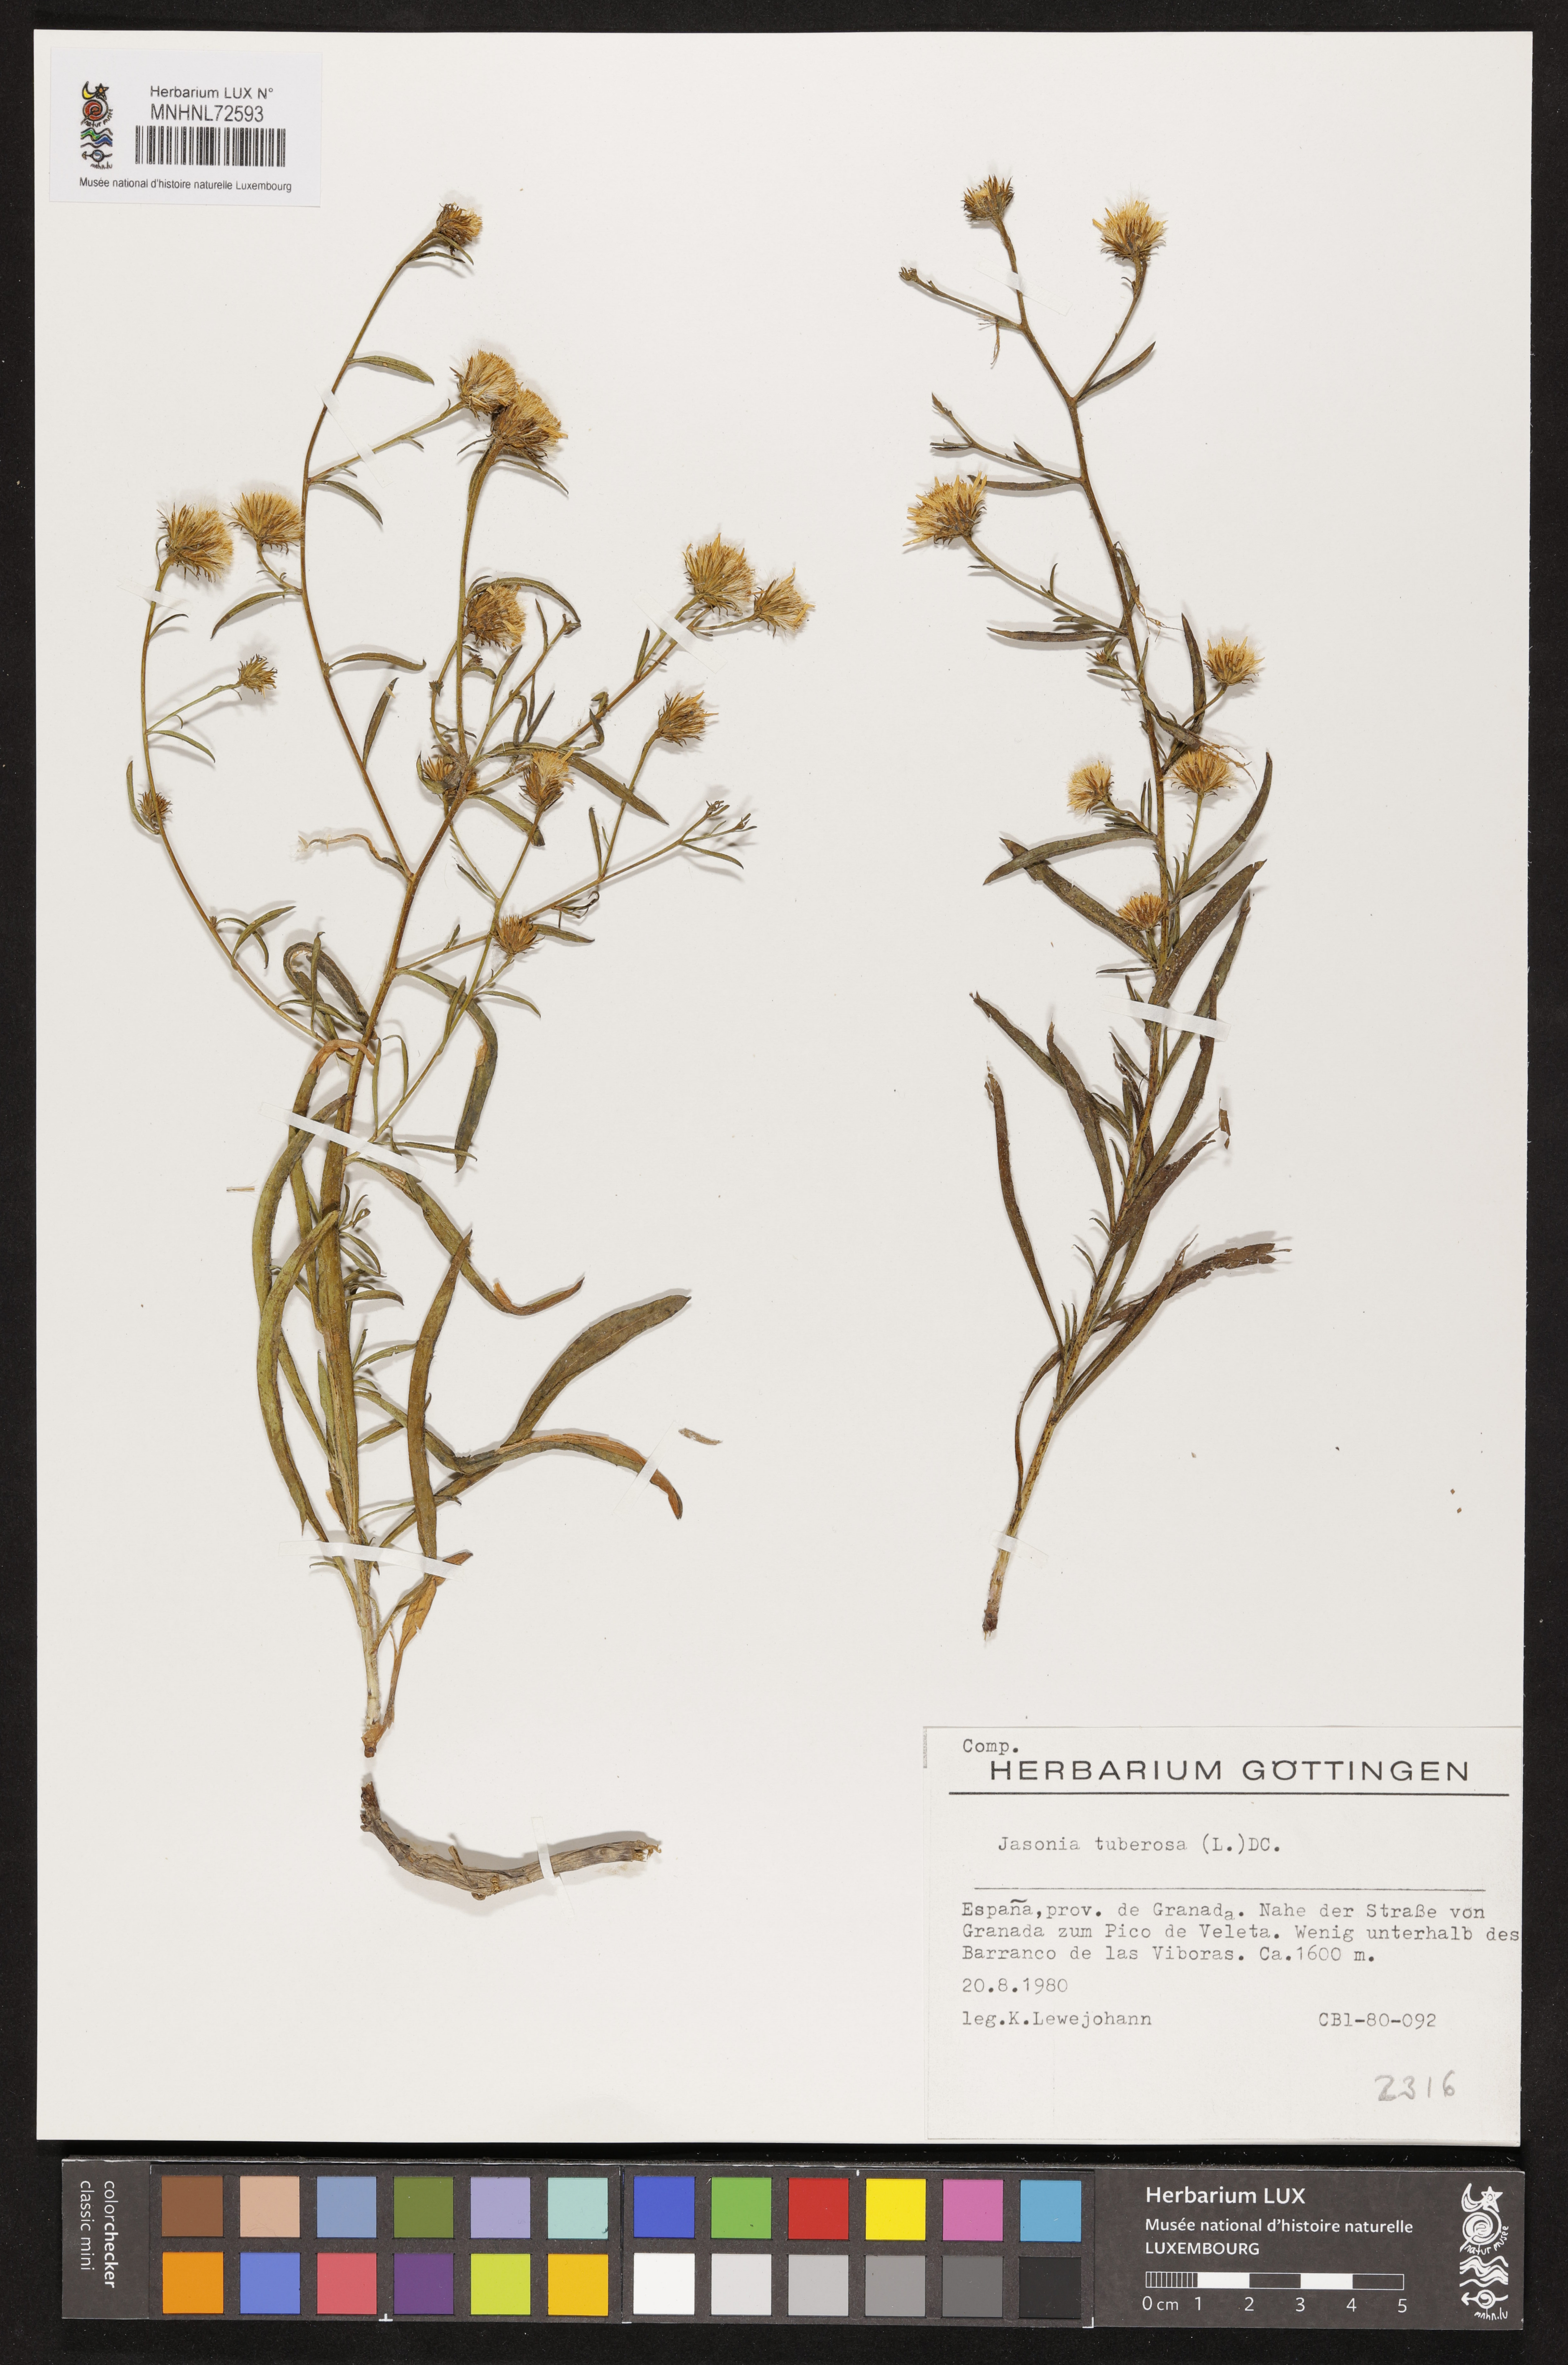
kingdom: Plantae
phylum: Tracheophyta
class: Magnoliopsida
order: Asterales
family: Asteraceae
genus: Jasonia
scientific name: Jasonia tuberosa
